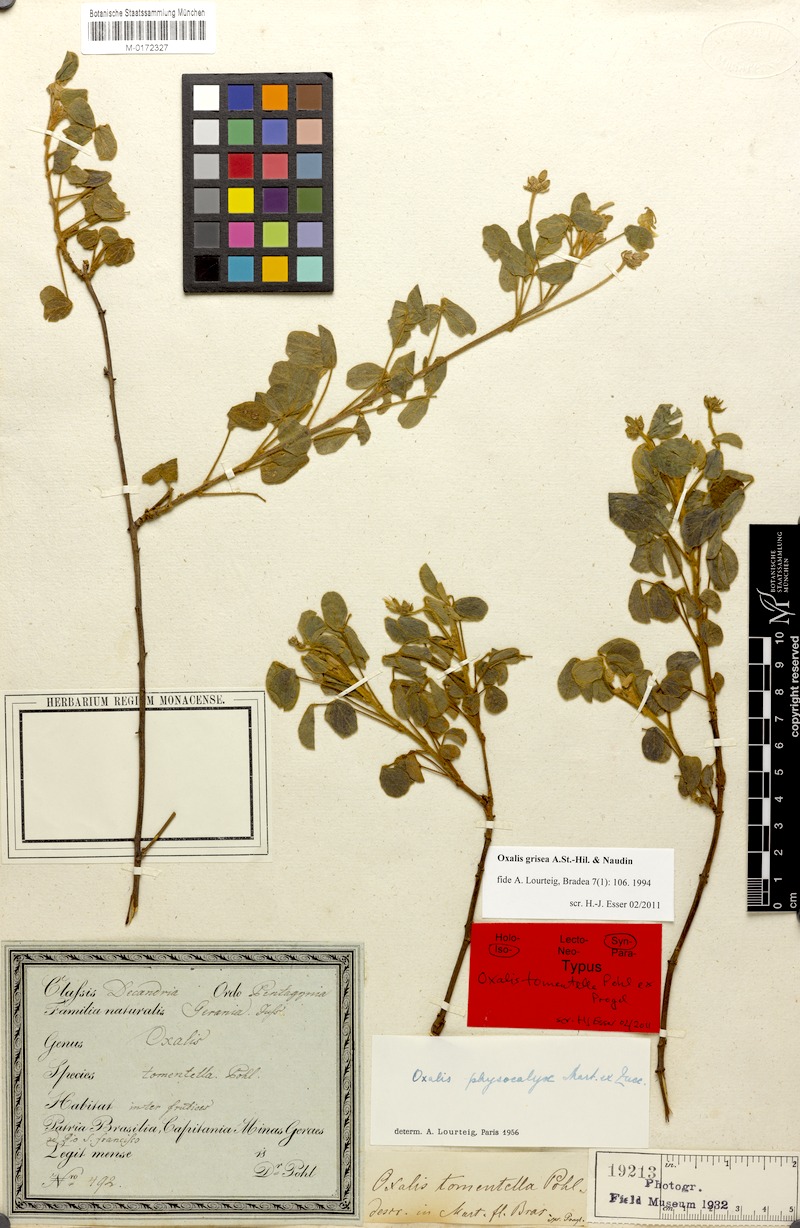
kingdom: Plantae
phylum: Tracheophyta
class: Magnoliopsida
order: Oxalidales
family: Oxalidaceae
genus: Oxalis
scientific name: Oxalis grisea
